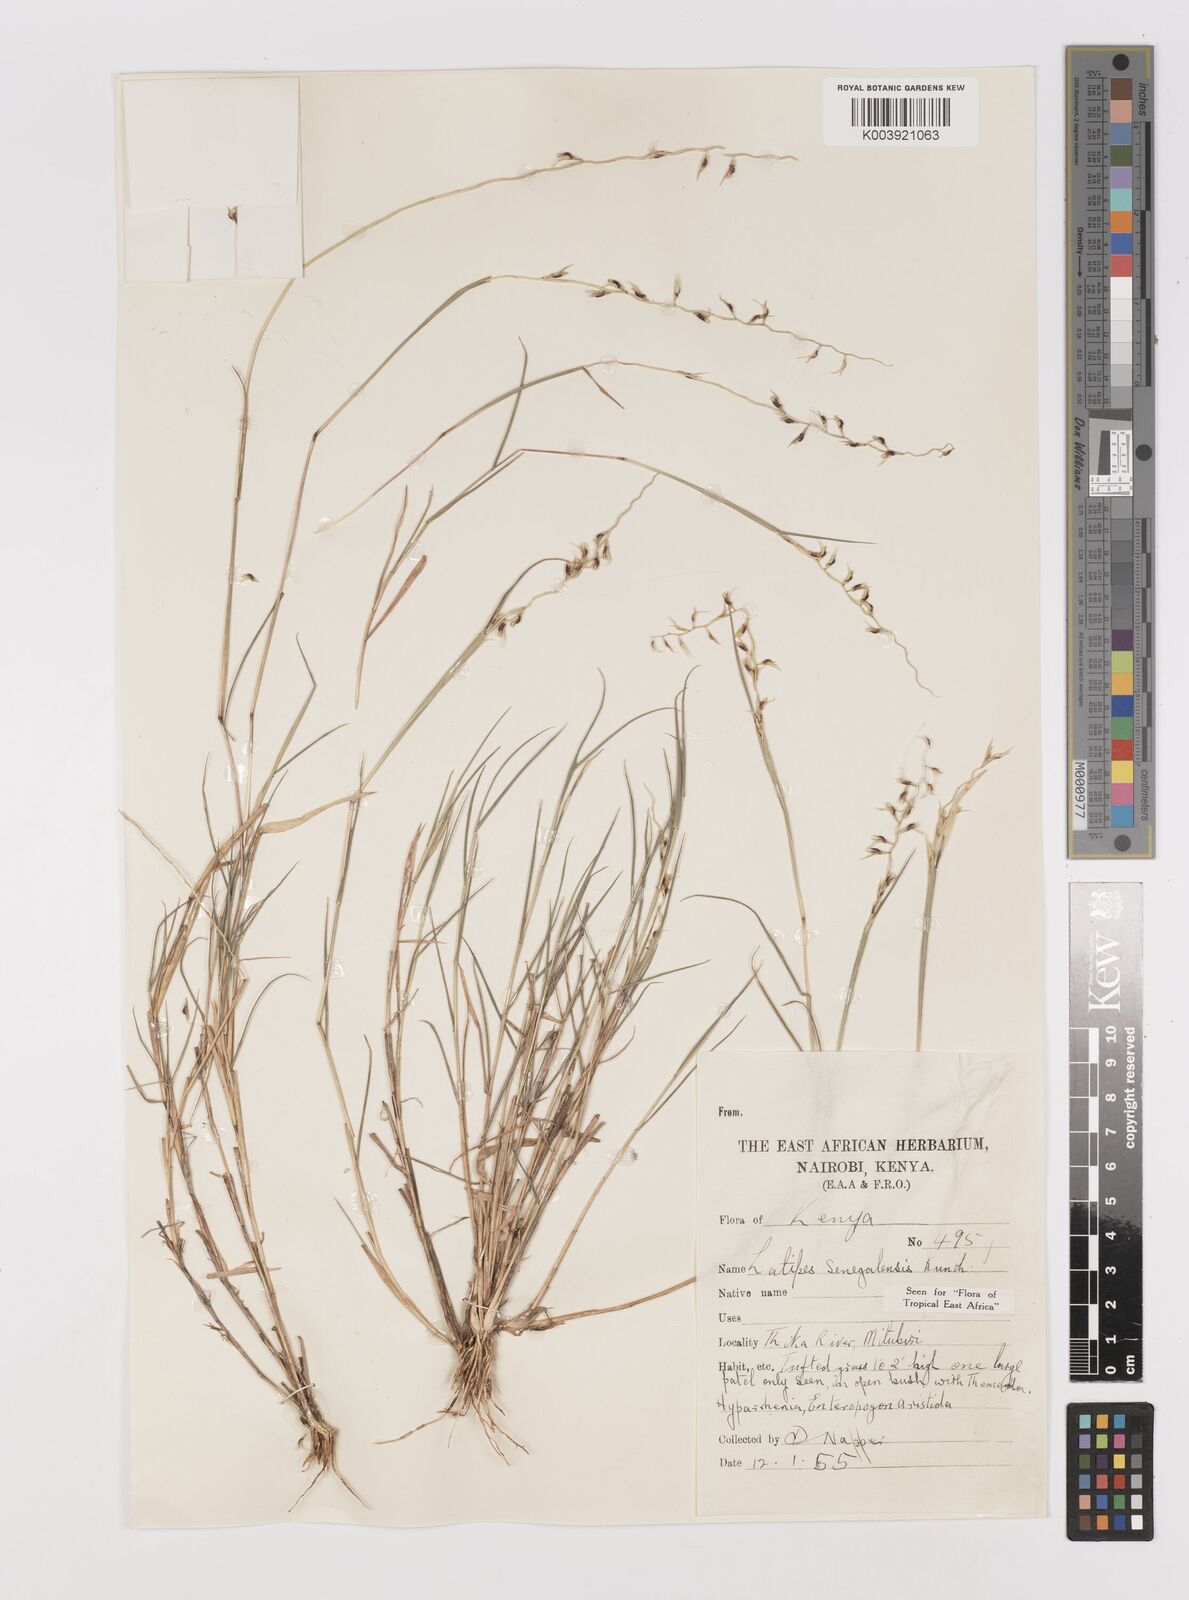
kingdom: Plantae
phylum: Tracheophyta
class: Liliopsida
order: Poales
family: Poaceae
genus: Leptothrium
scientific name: Leptothrium senegalense
